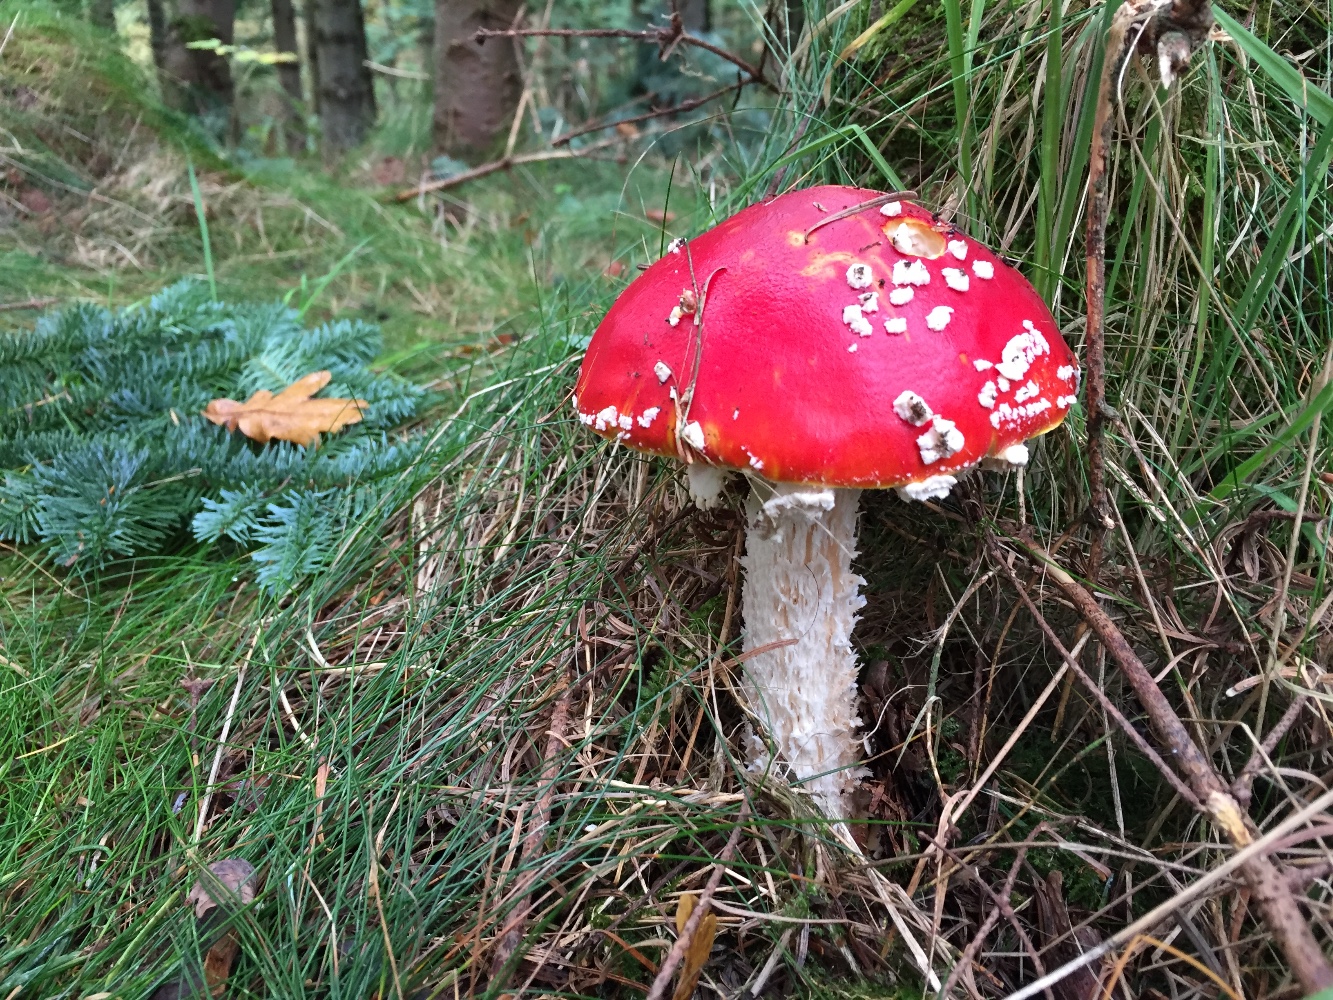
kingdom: Fungi
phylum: Basidiomycota
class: Agaricomycetes
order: Agaricales
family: Amanitaceae
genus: Amanita
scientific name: Amanita muscaria
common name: rød fluesvamp
